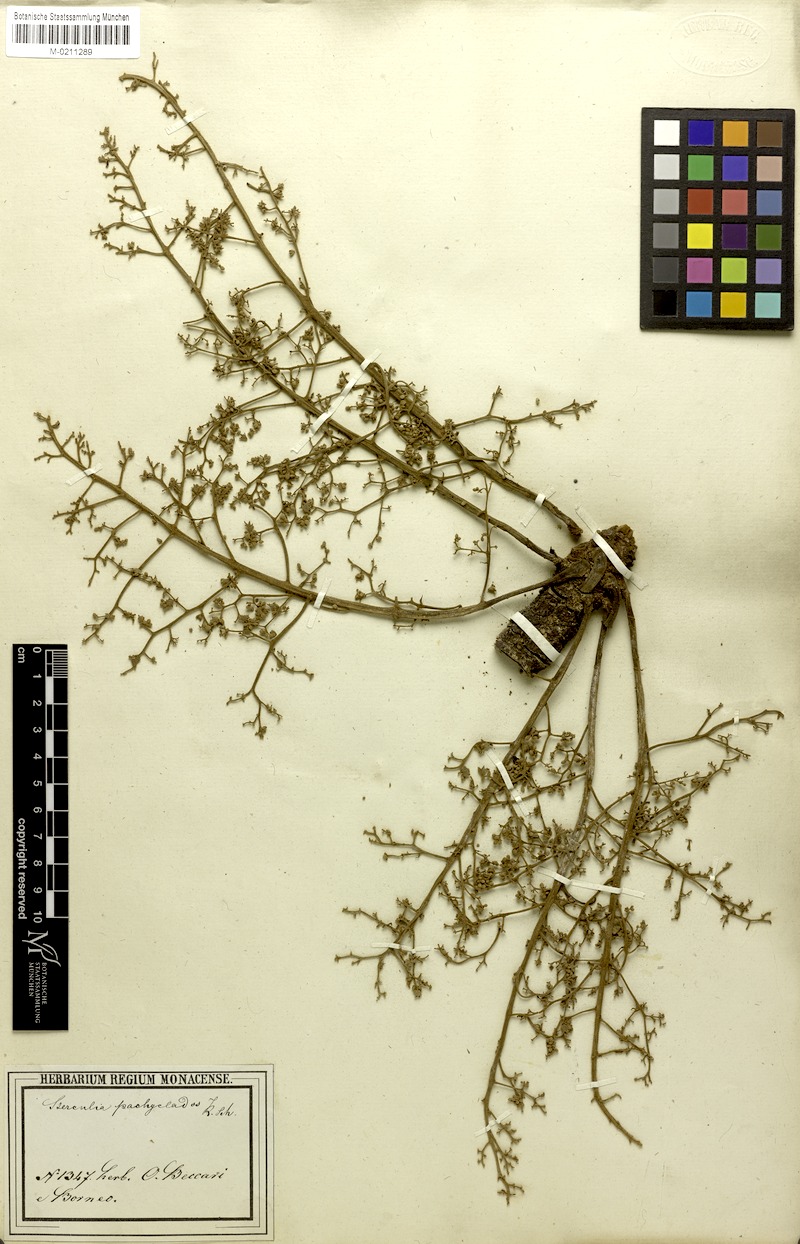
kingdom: Plantae
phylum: Tracheophyta
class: Magnoliopsida
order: Malvales
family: Malvaceae
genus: Sterculia
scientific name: Sterculia macrophylla
